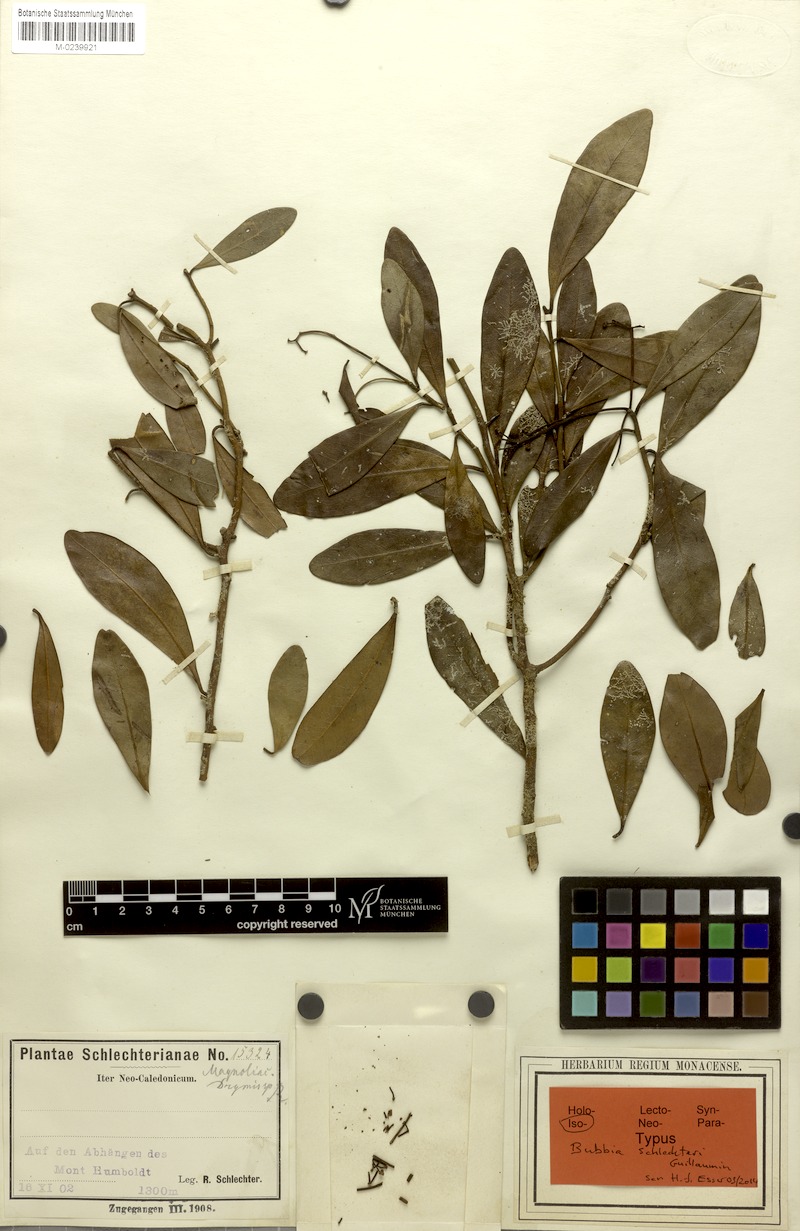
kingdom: Plantae
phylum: Tracheophyta
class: Magnoliopsida
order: Canellales
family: Winteraceae
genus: Zygogynum
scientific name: Zygogynum schlechteri
